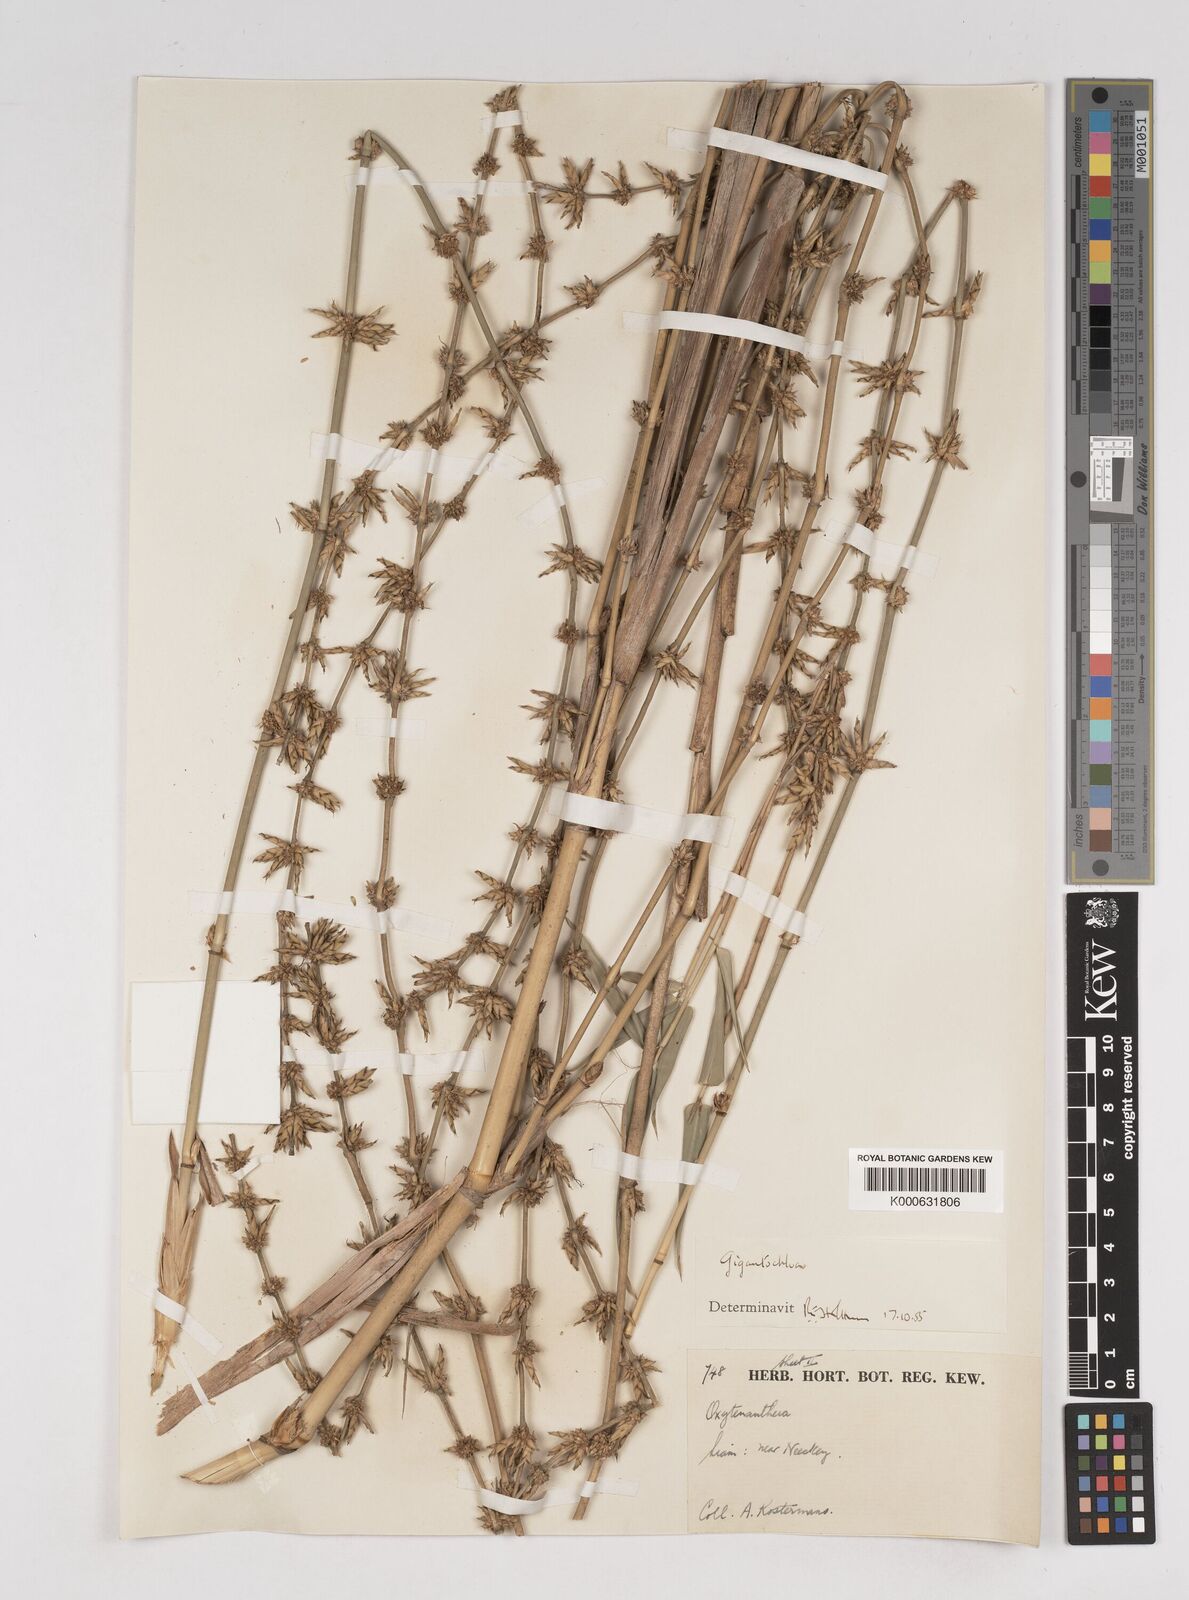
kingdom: Plantae
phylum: Tracheophyta
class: Liliopsida
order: Poales
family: Poaceae
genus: Gigantochloa
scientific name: Gigantochloa
